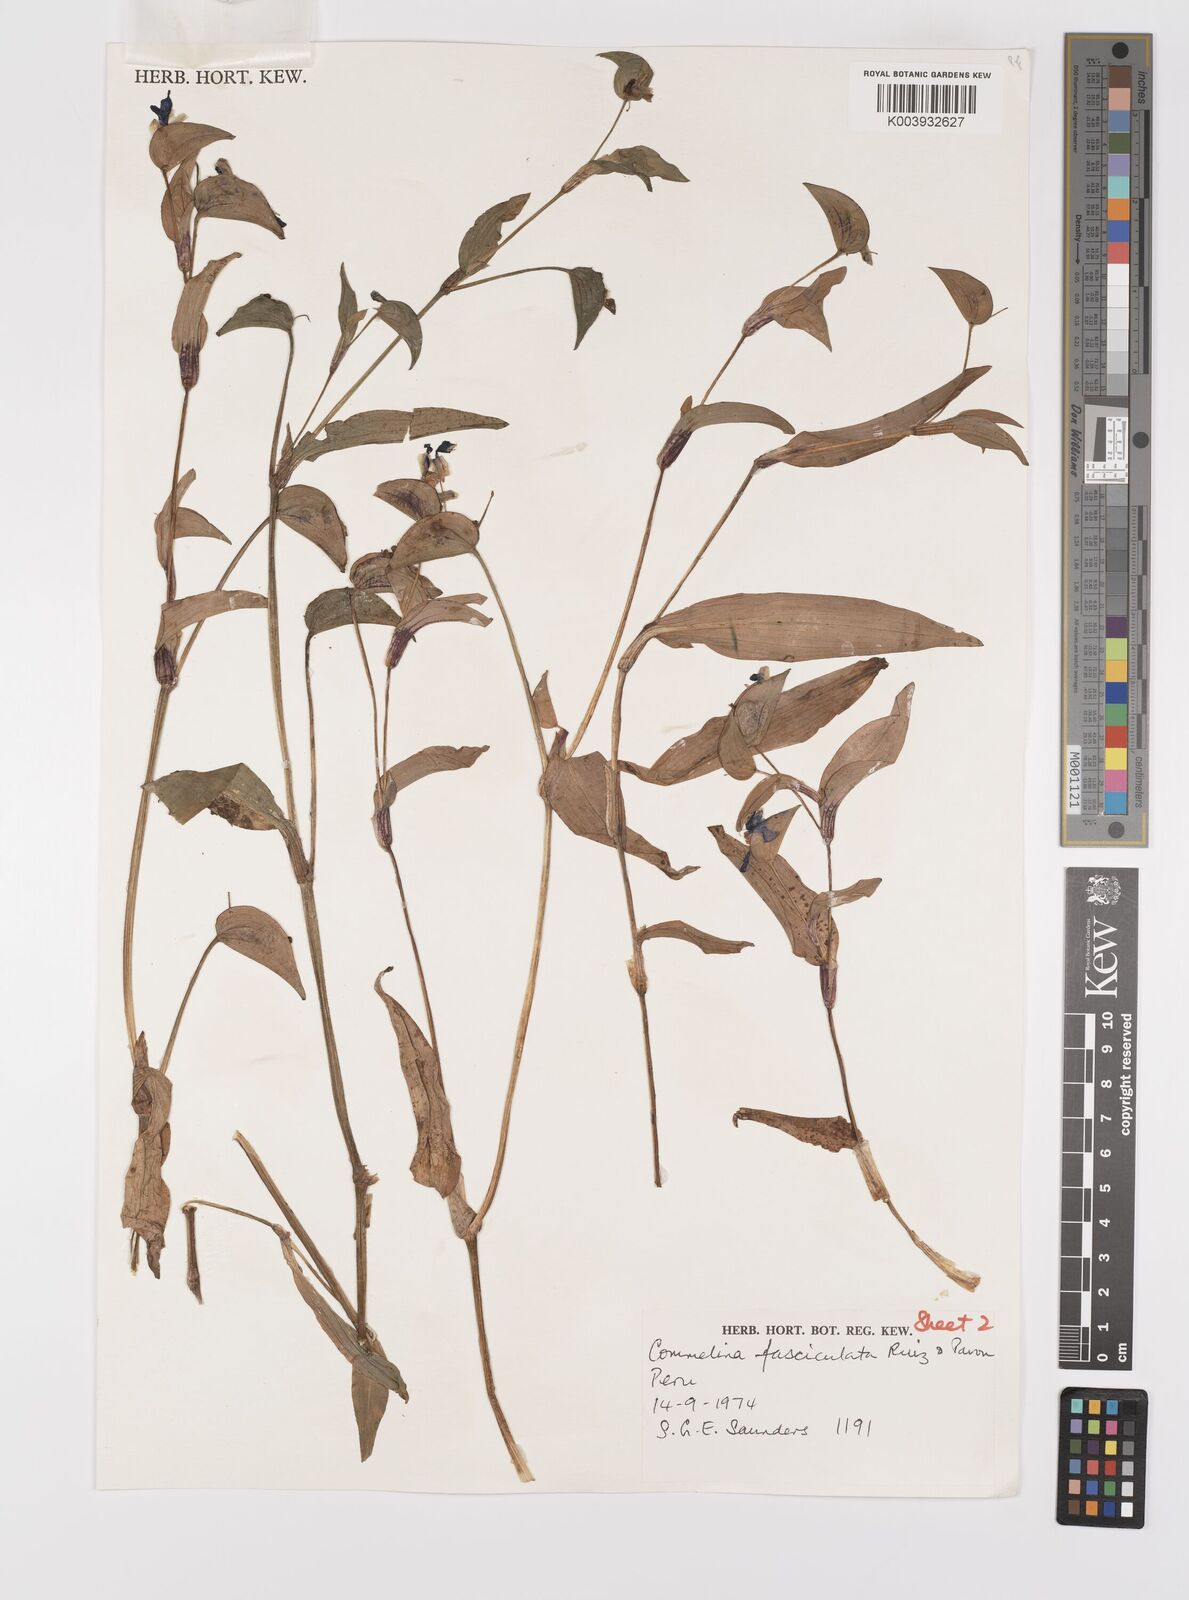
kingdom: Plantae
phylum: Tracheophyta
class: Liliopsida
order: Commelinales
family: Commelinaceae
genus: Commelina
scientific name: Commelina tuberosa
